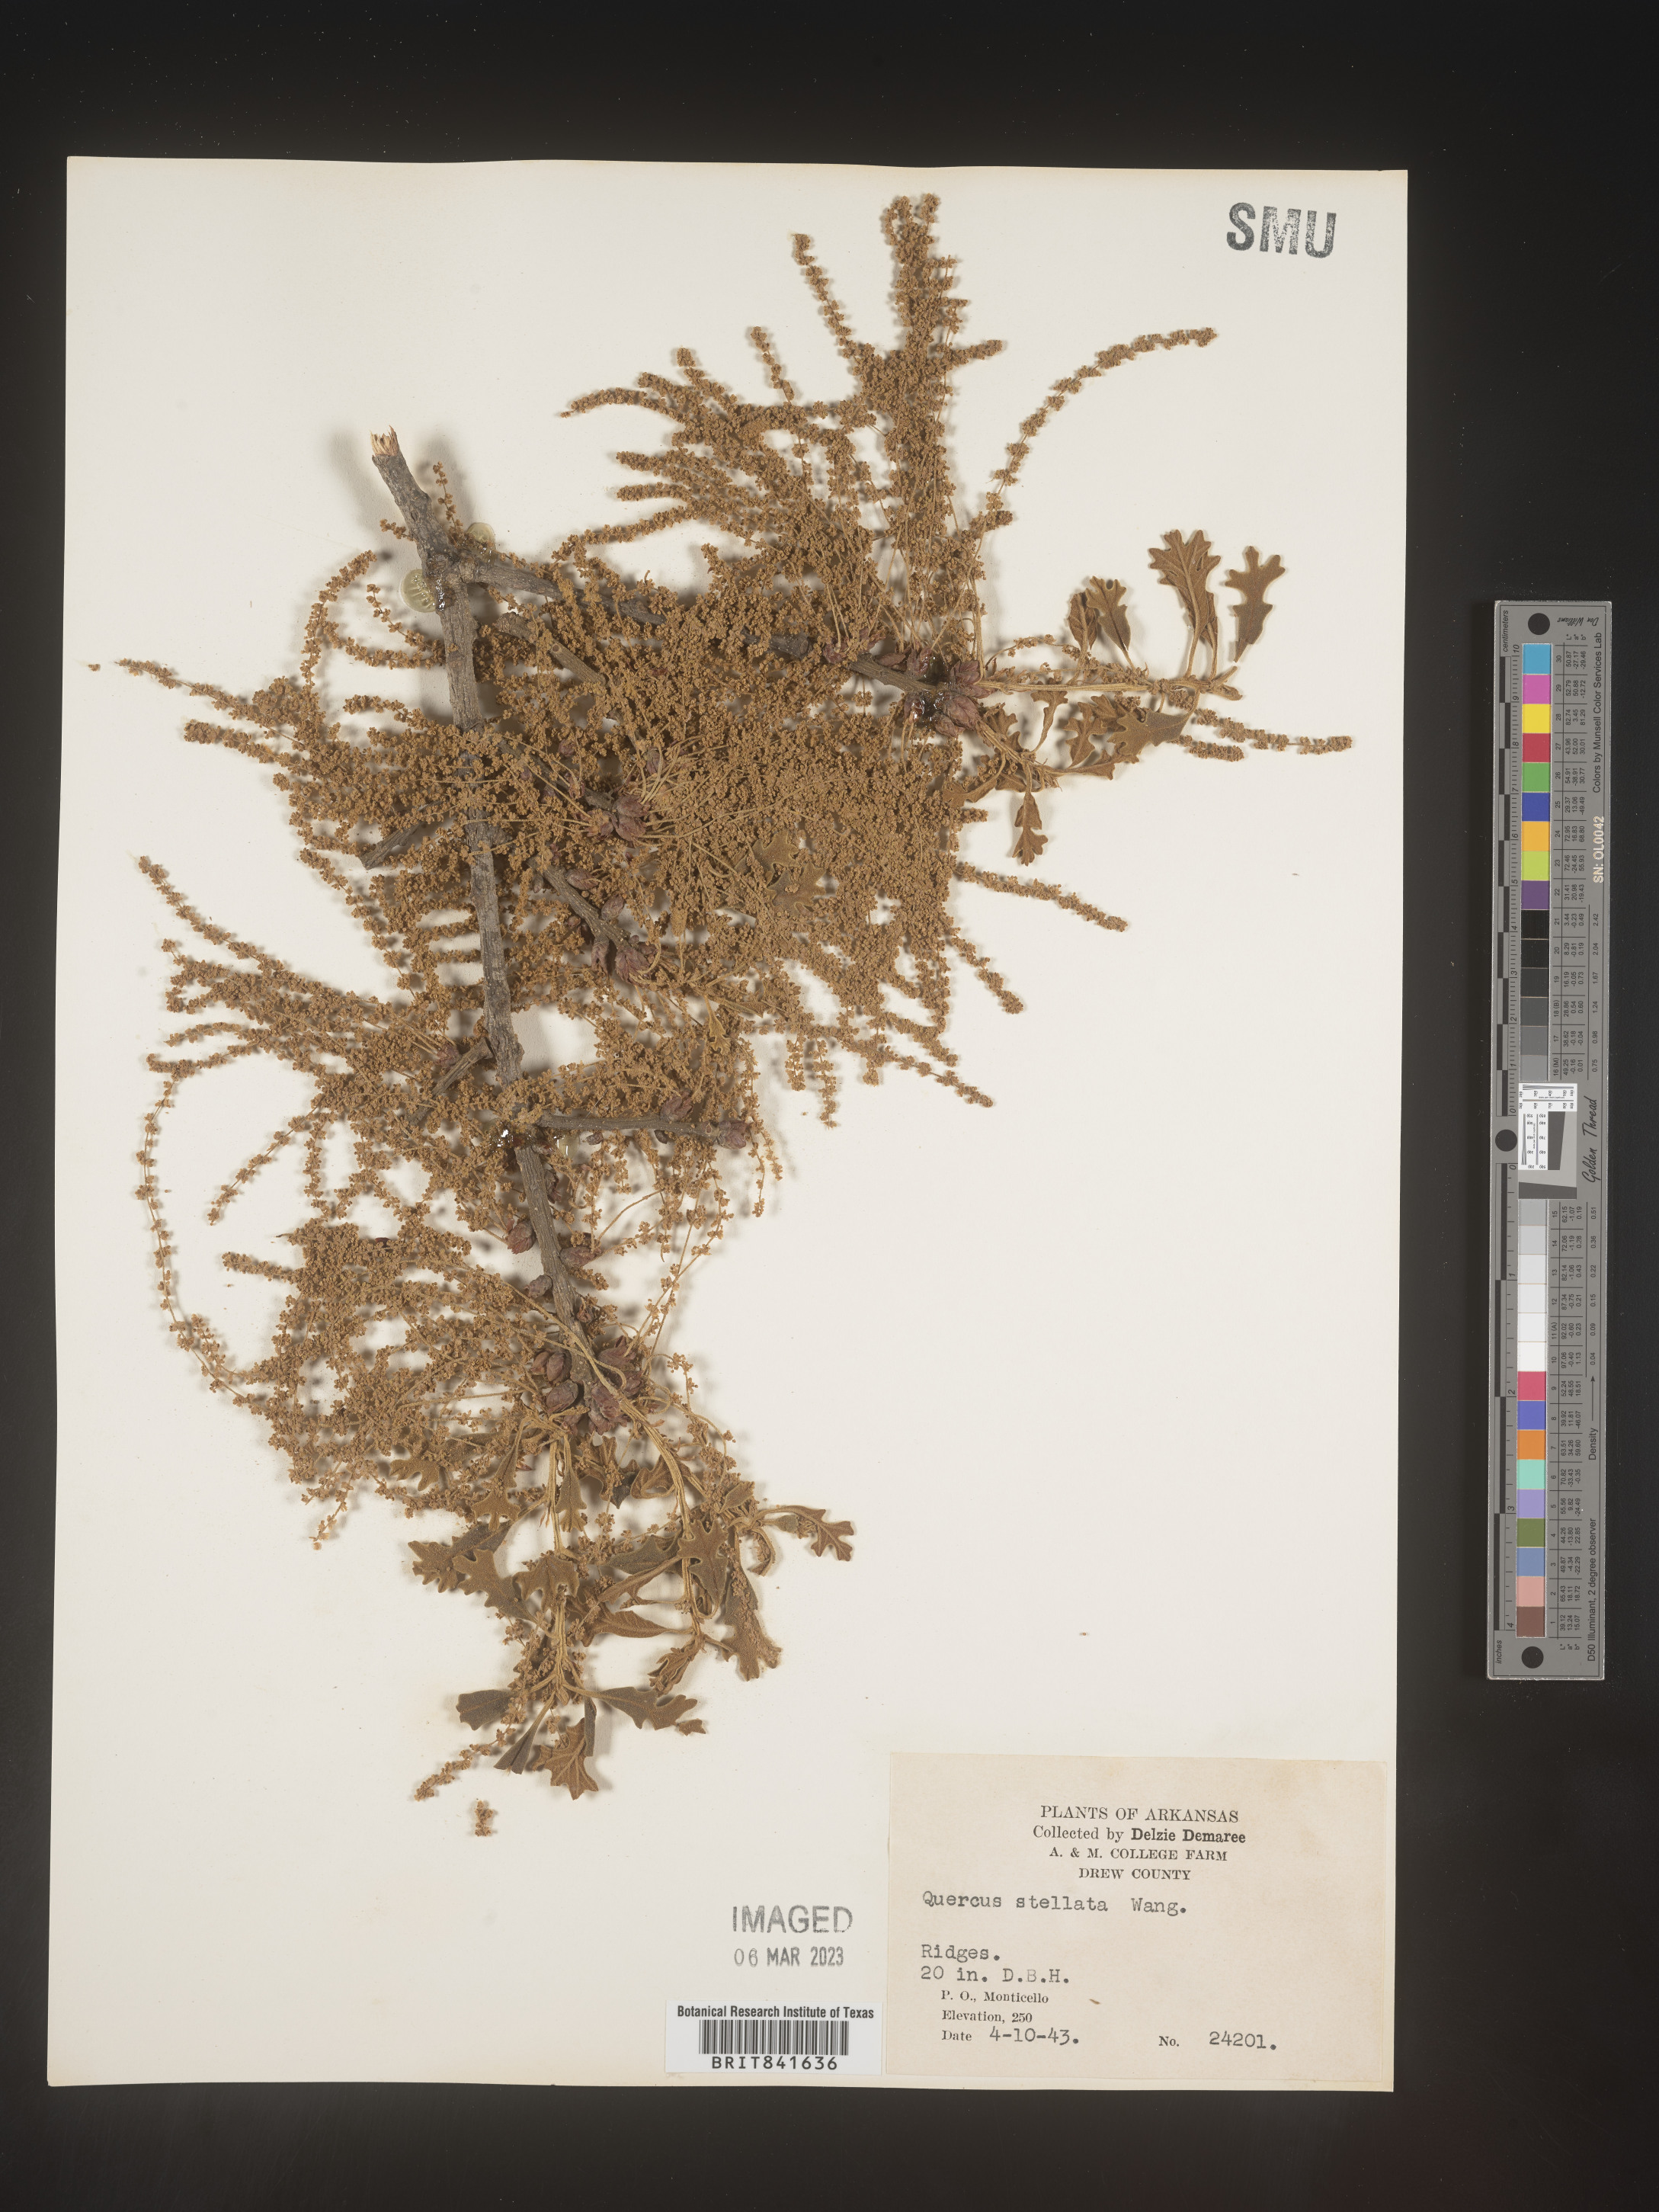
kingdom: Plantae
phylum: Tracheophyta
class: Magnoliopsida
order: Fagales
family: Fagaceae
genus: Quercus
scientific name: Quercus stellata
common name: Post oak
